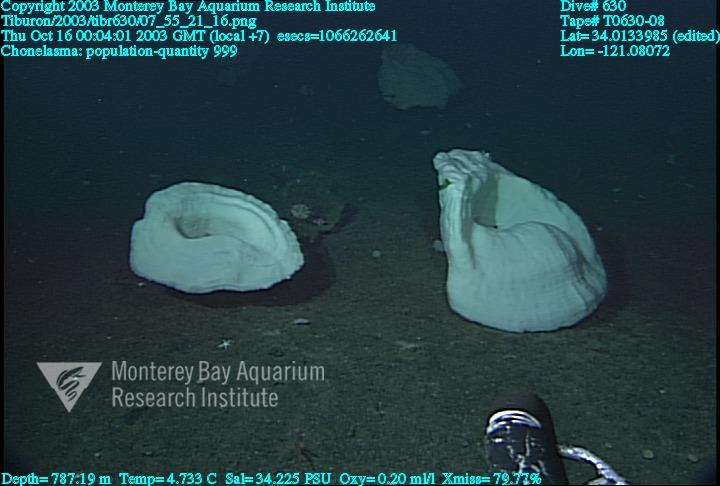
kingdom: Animalia
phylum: Porifera
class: Hexactinellida
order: Sceptrulophora
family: Euretidae
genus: Chonelasma
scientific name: Chonelasma
